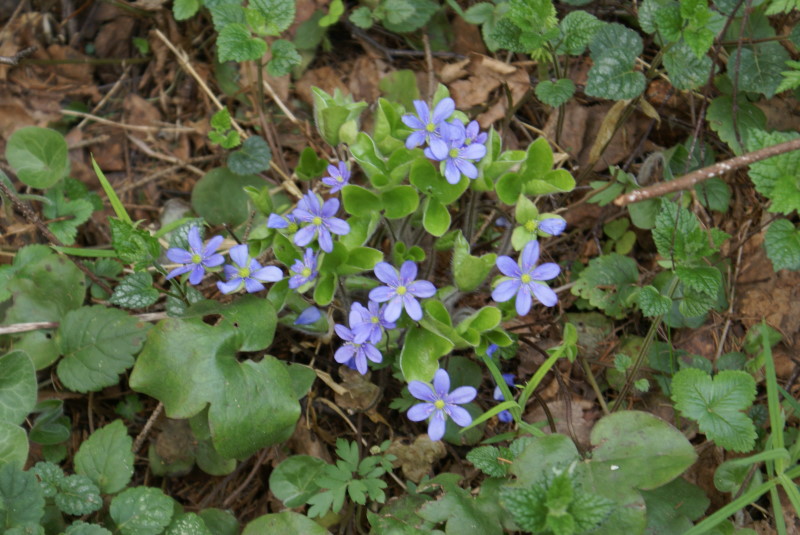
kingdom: Plantae
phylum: Tracheophyta
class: Magnoliopsida
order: Ranunculales
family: Ranunculaceae
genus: Hepatica
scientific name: Hepatica nobilis
